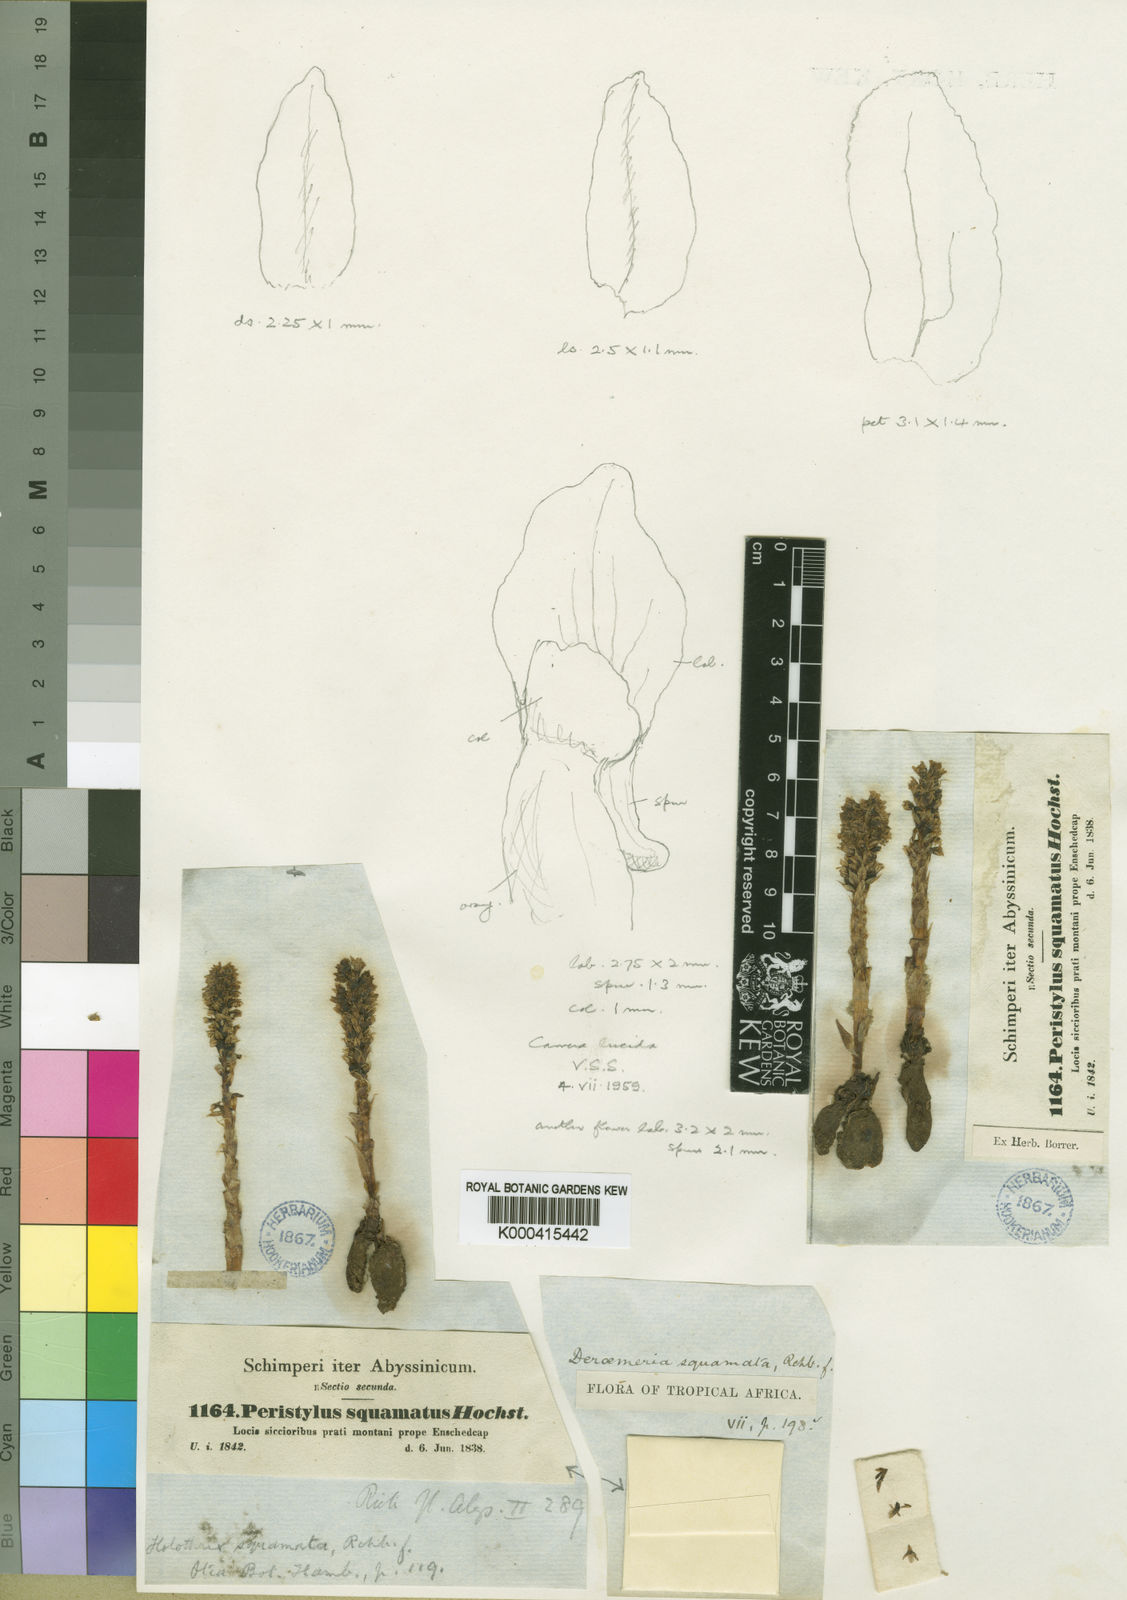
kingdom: Plantae
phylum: Tracheophyta
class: Liliopsida
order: Asparagales
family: Orchidaceae
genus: Holothrix
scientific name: Holothrix squammata
